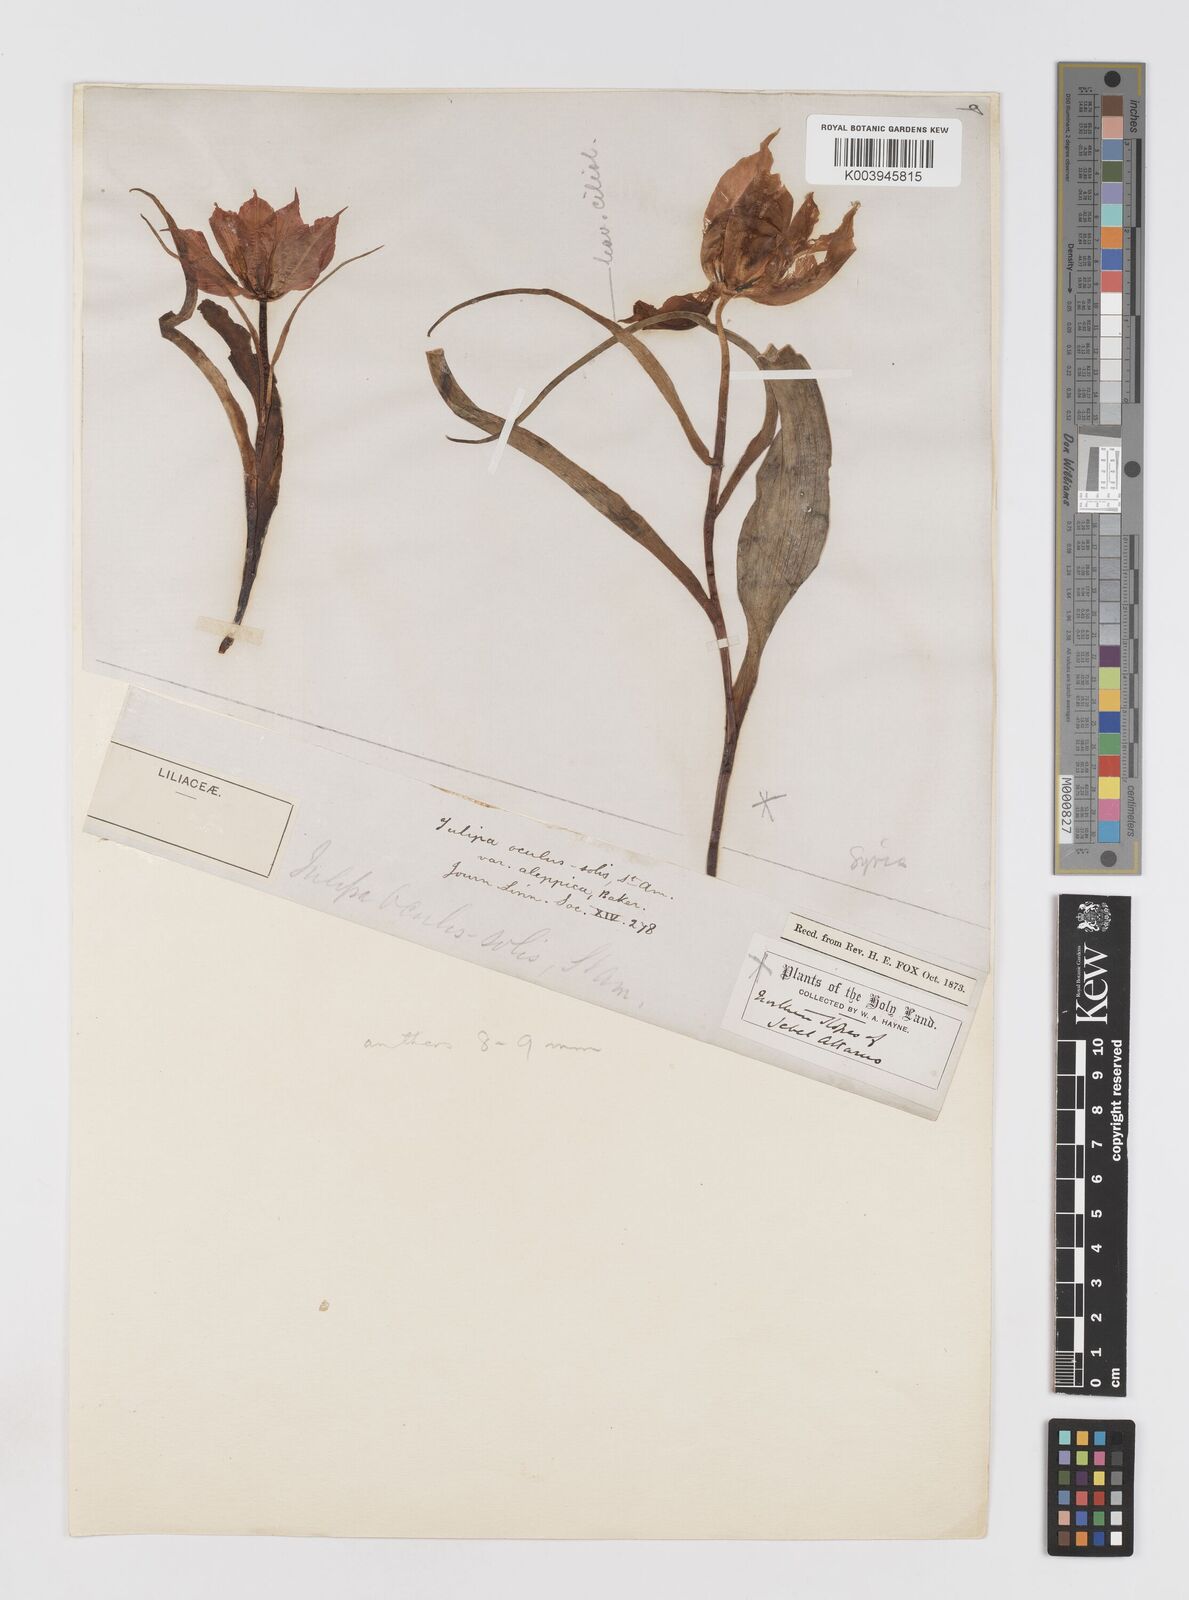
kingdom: Plantae
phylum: Tracheophyta
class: Liliopsida
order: Liliales
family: Liliaceae
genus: Tulipa
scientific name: Tulipa aleppensis
